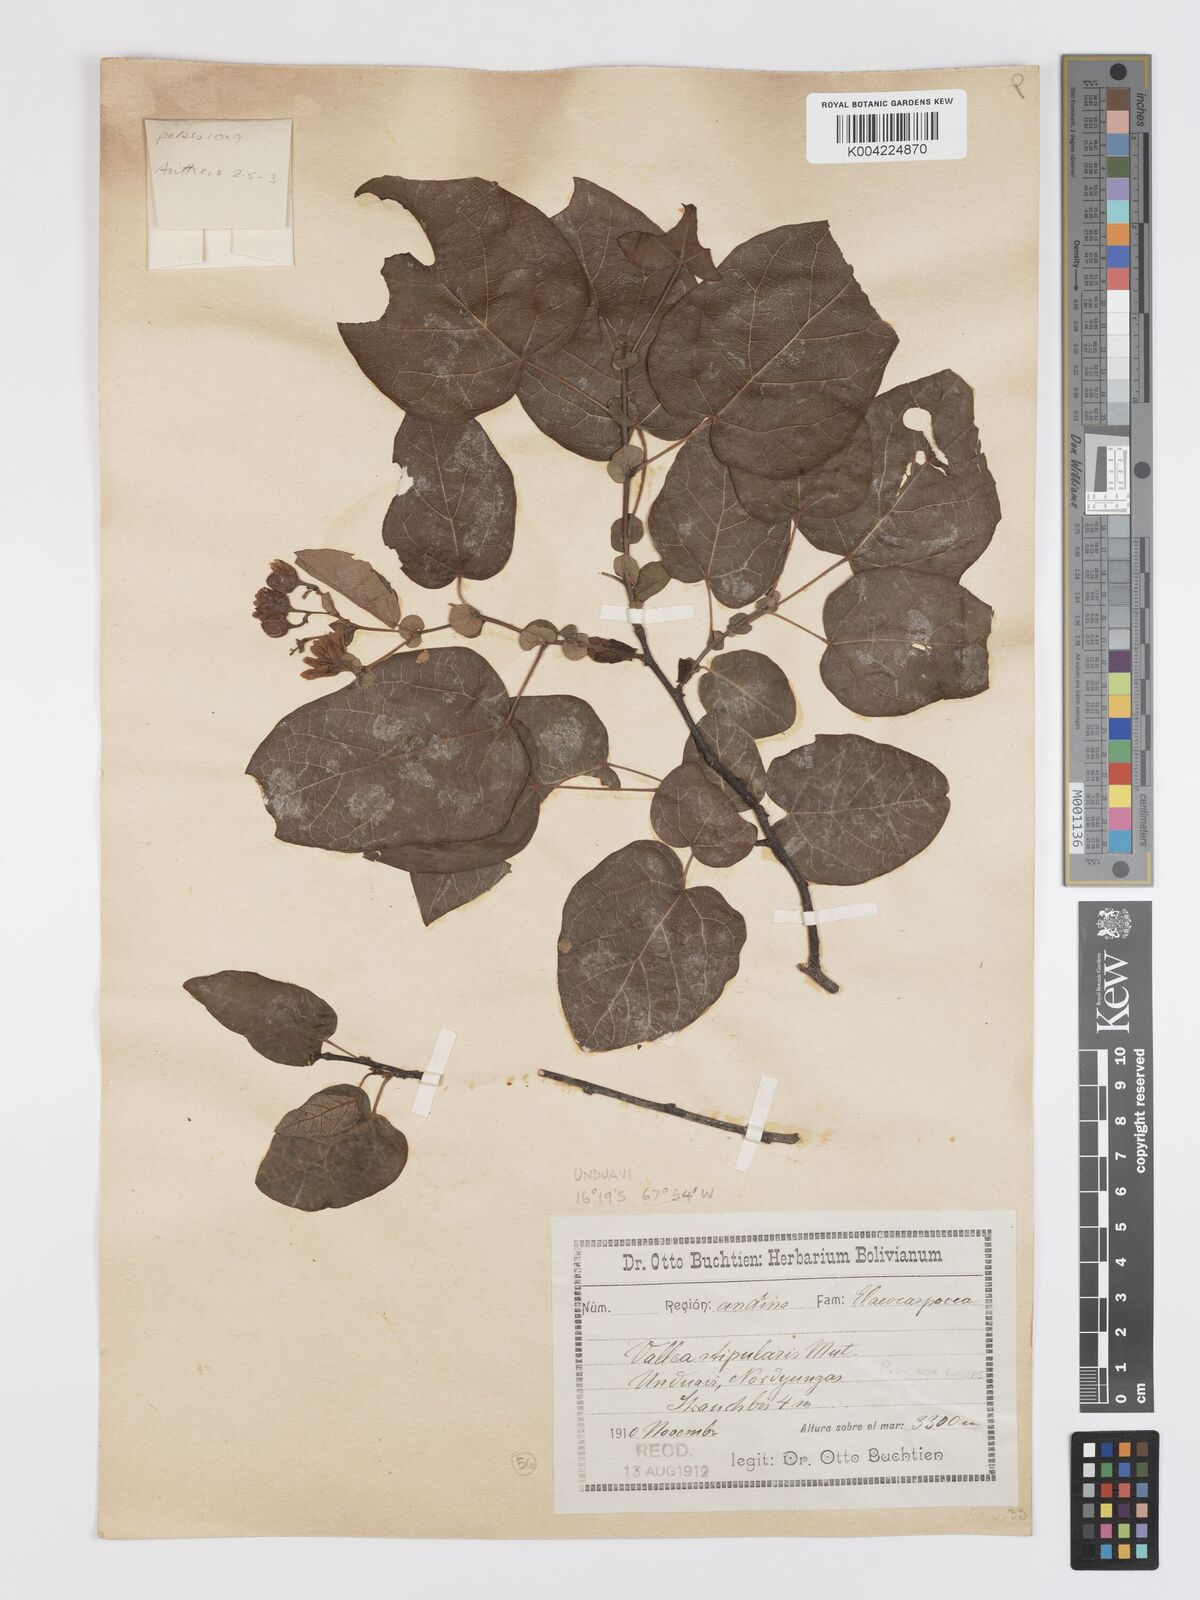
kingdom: Plantae
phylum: Tracheophyta
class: Magnoliopsida
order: Oxalidales
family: Elaeocarpaceae
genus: Vallea
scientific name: Vallea stipularis
